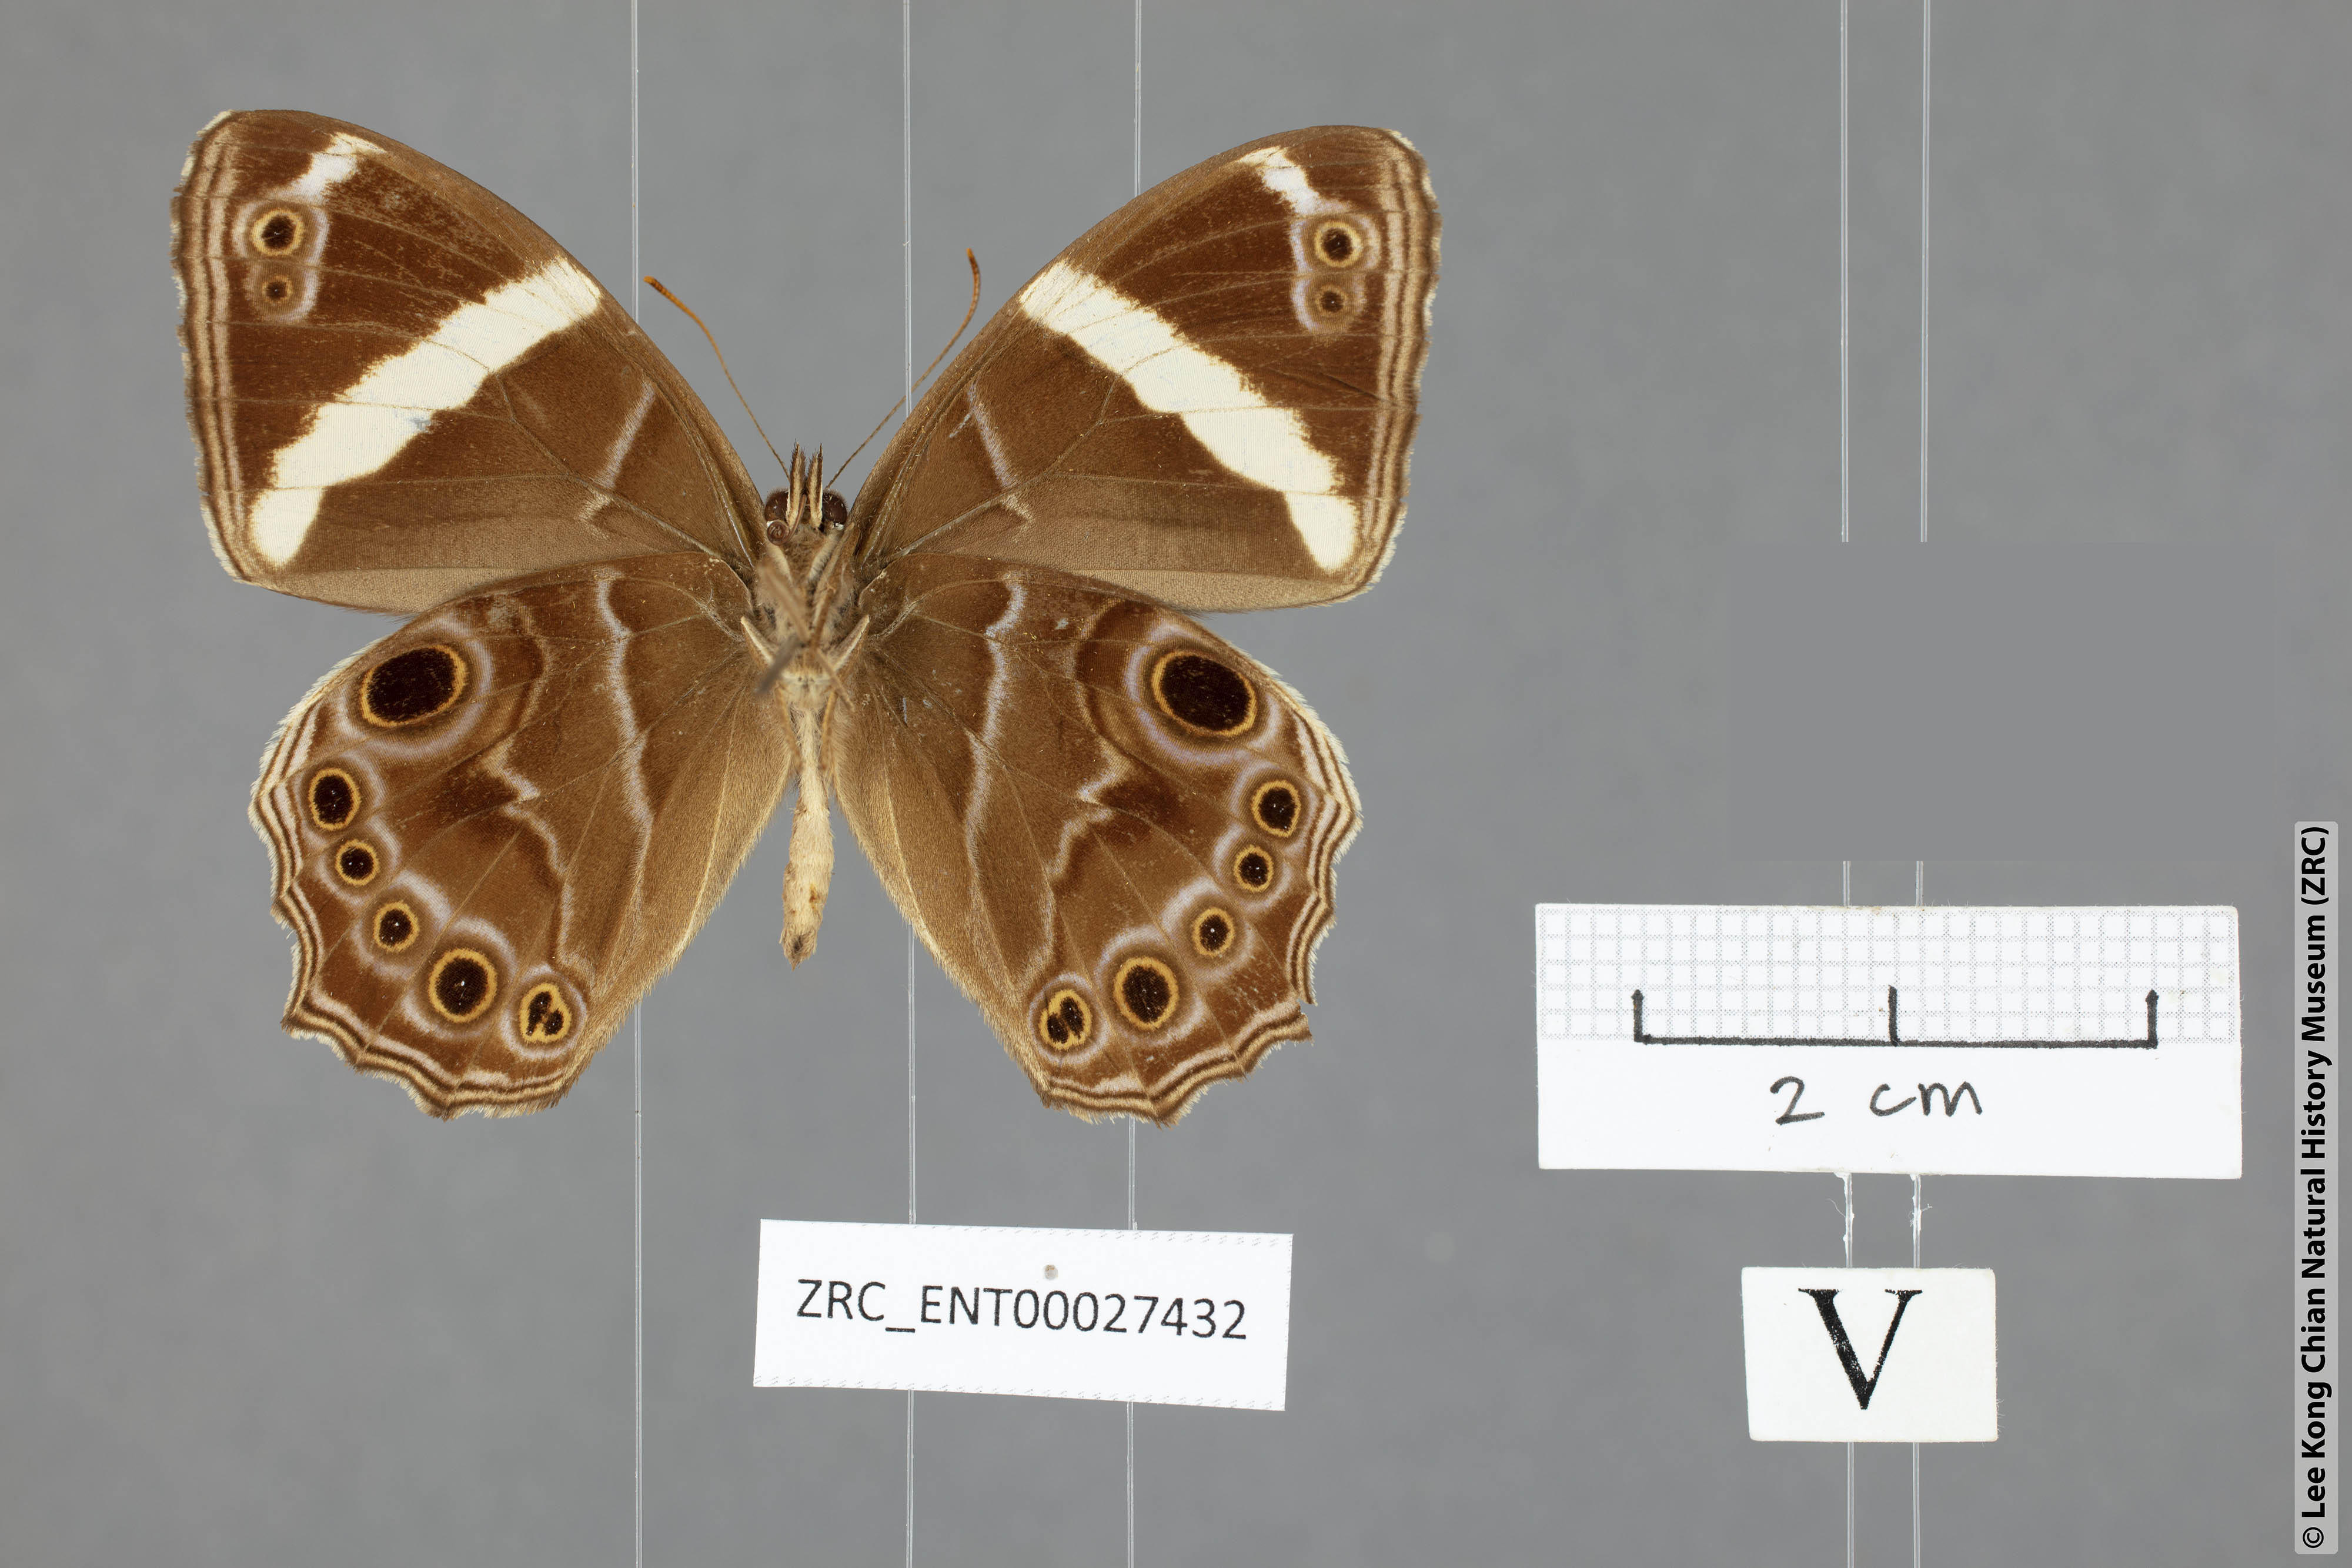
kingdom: Animalia
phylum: Arthropoda
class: Insecta
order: Lepidoptera
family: Nymphalidae
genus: Lethe
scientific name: Lethe confusa
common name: Banded treebrown
